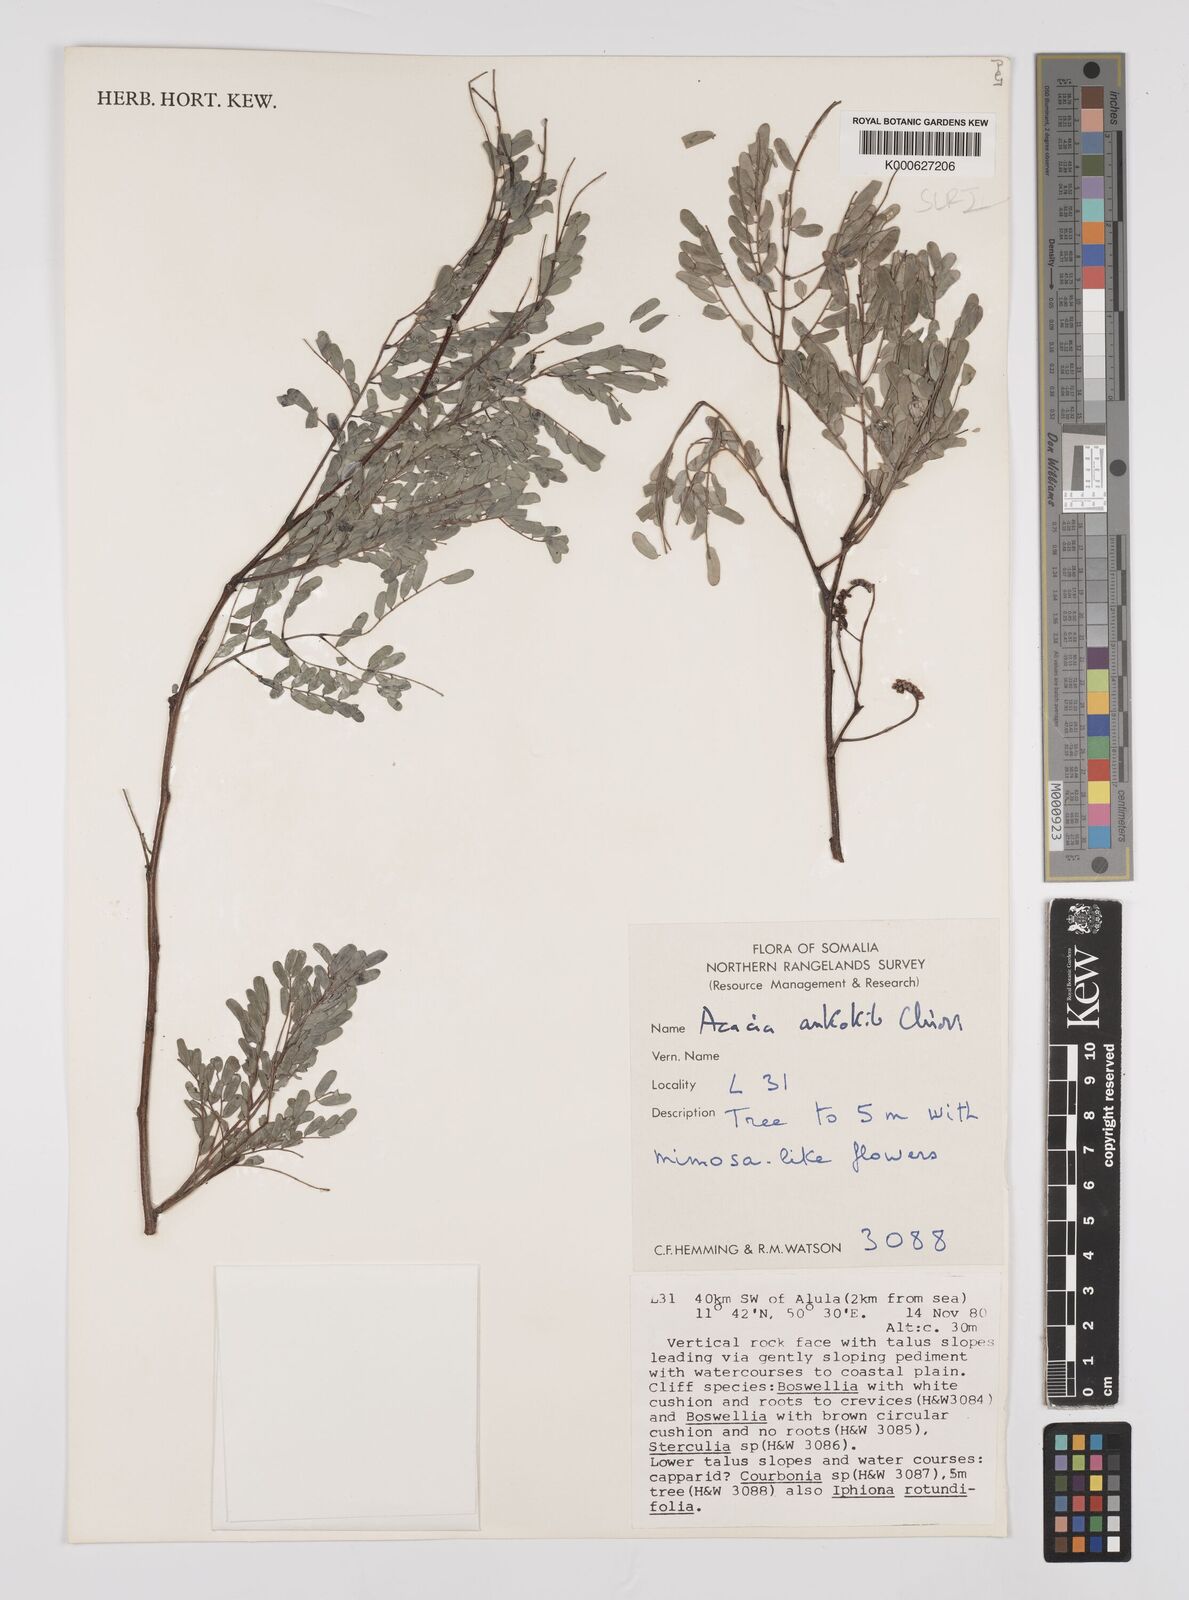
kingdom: Plantae
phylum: Tracheophyta
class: Magnoliopsida
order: Fabales
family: Fabaceae
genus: Senegalia
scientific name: Senegalia ankokib
